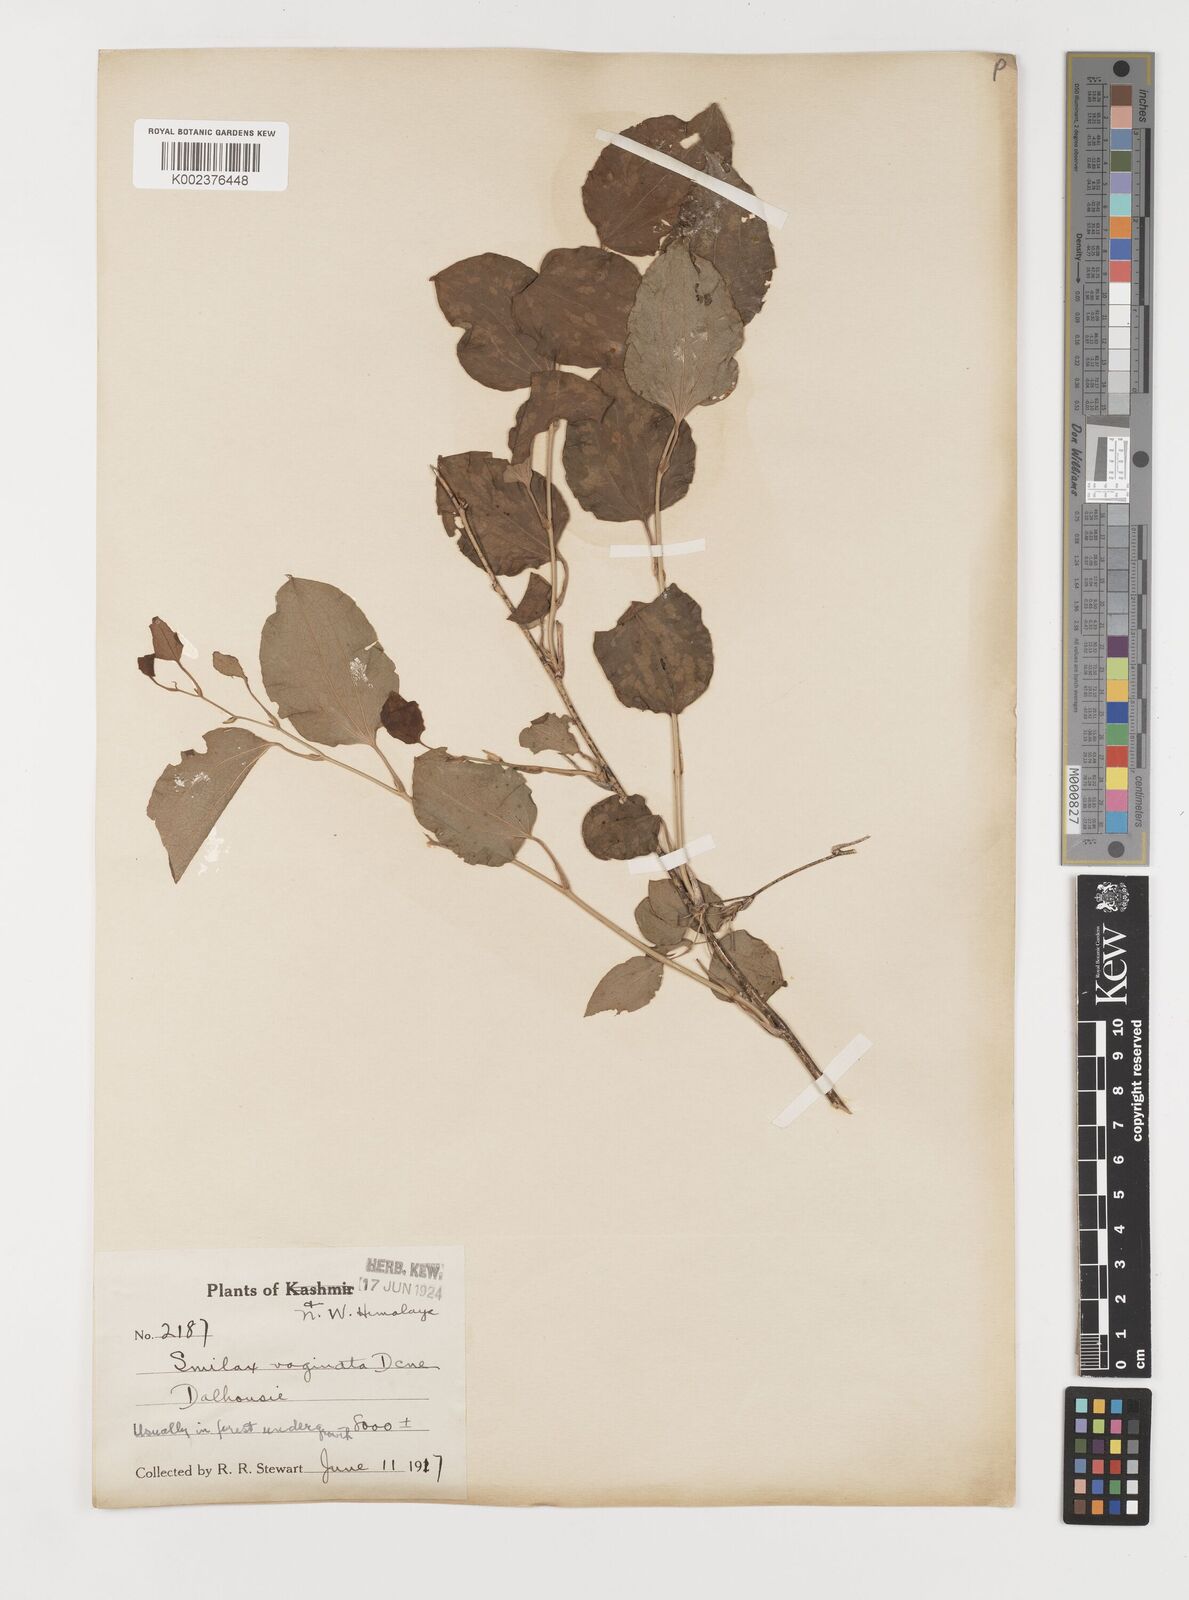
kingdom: Plantae
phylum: Tracheophyta
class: Liliopsida
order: Liliales
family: Smilacaceae
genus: Smilax
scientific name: Smilax vaginata
